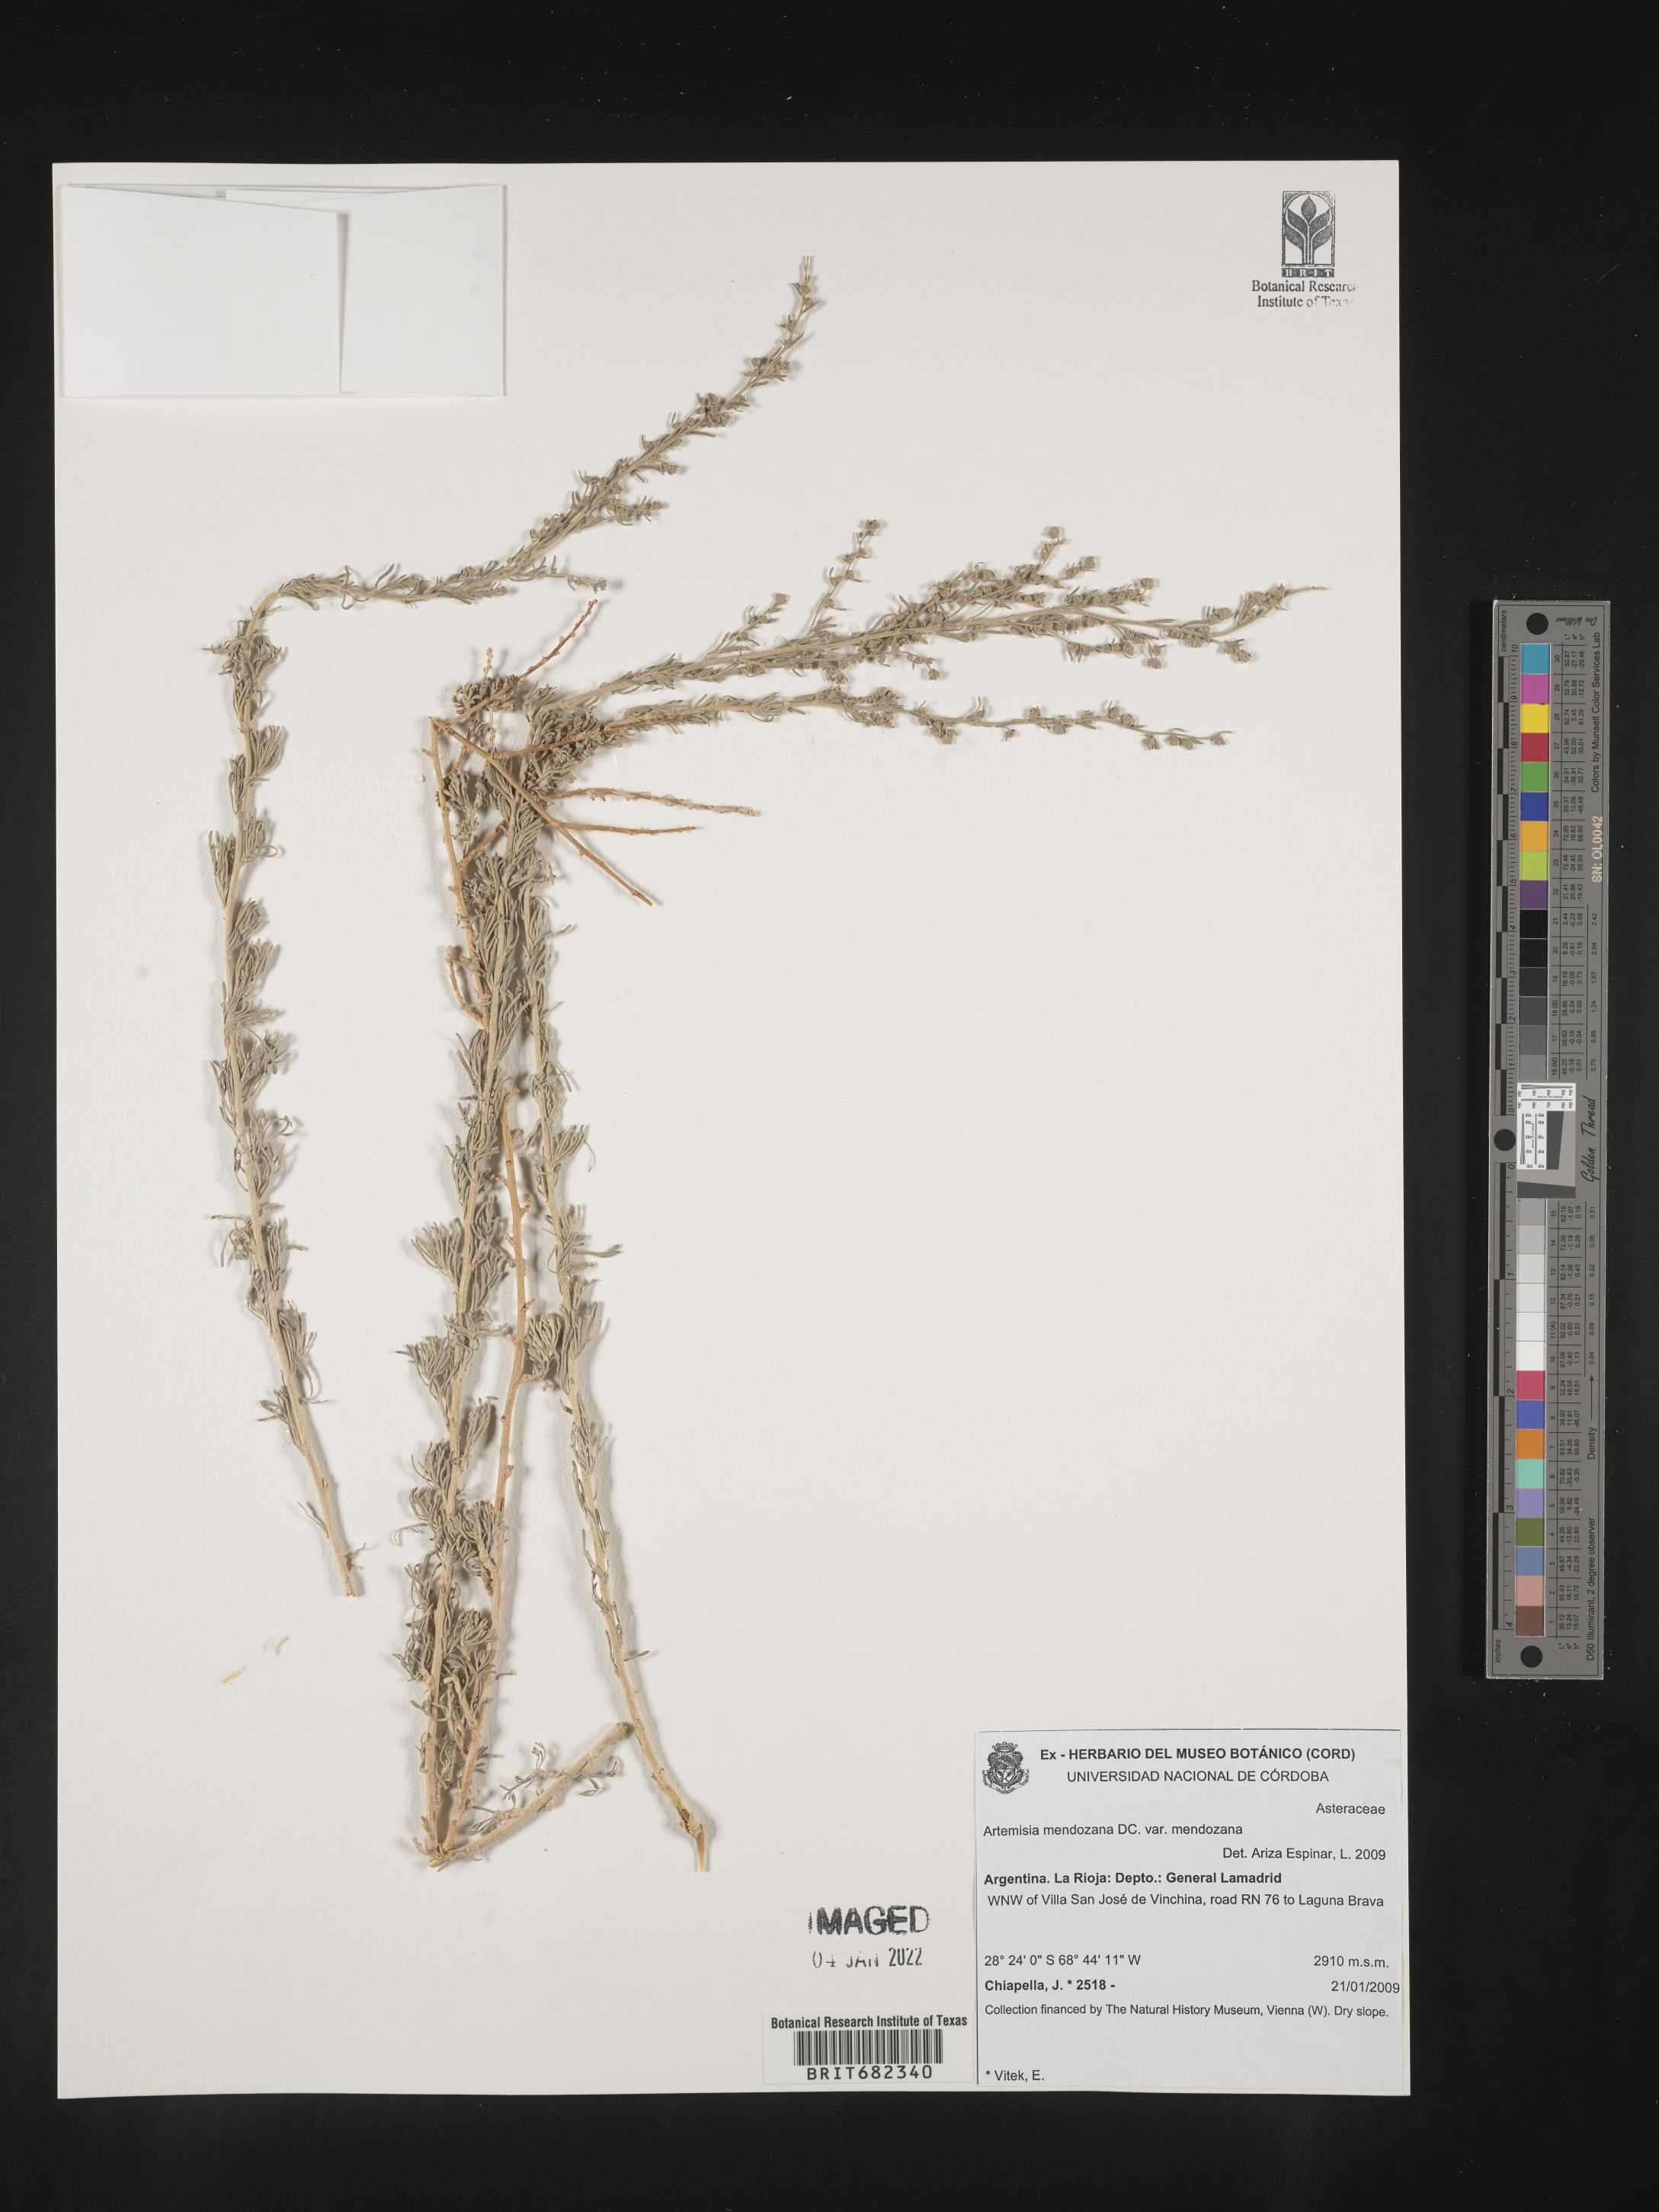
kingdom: Plantae
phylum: Tracheophyta
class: Magnoliopsida
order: Asterales
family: Asteraceae
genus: Artemisia
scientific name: Artemisia
